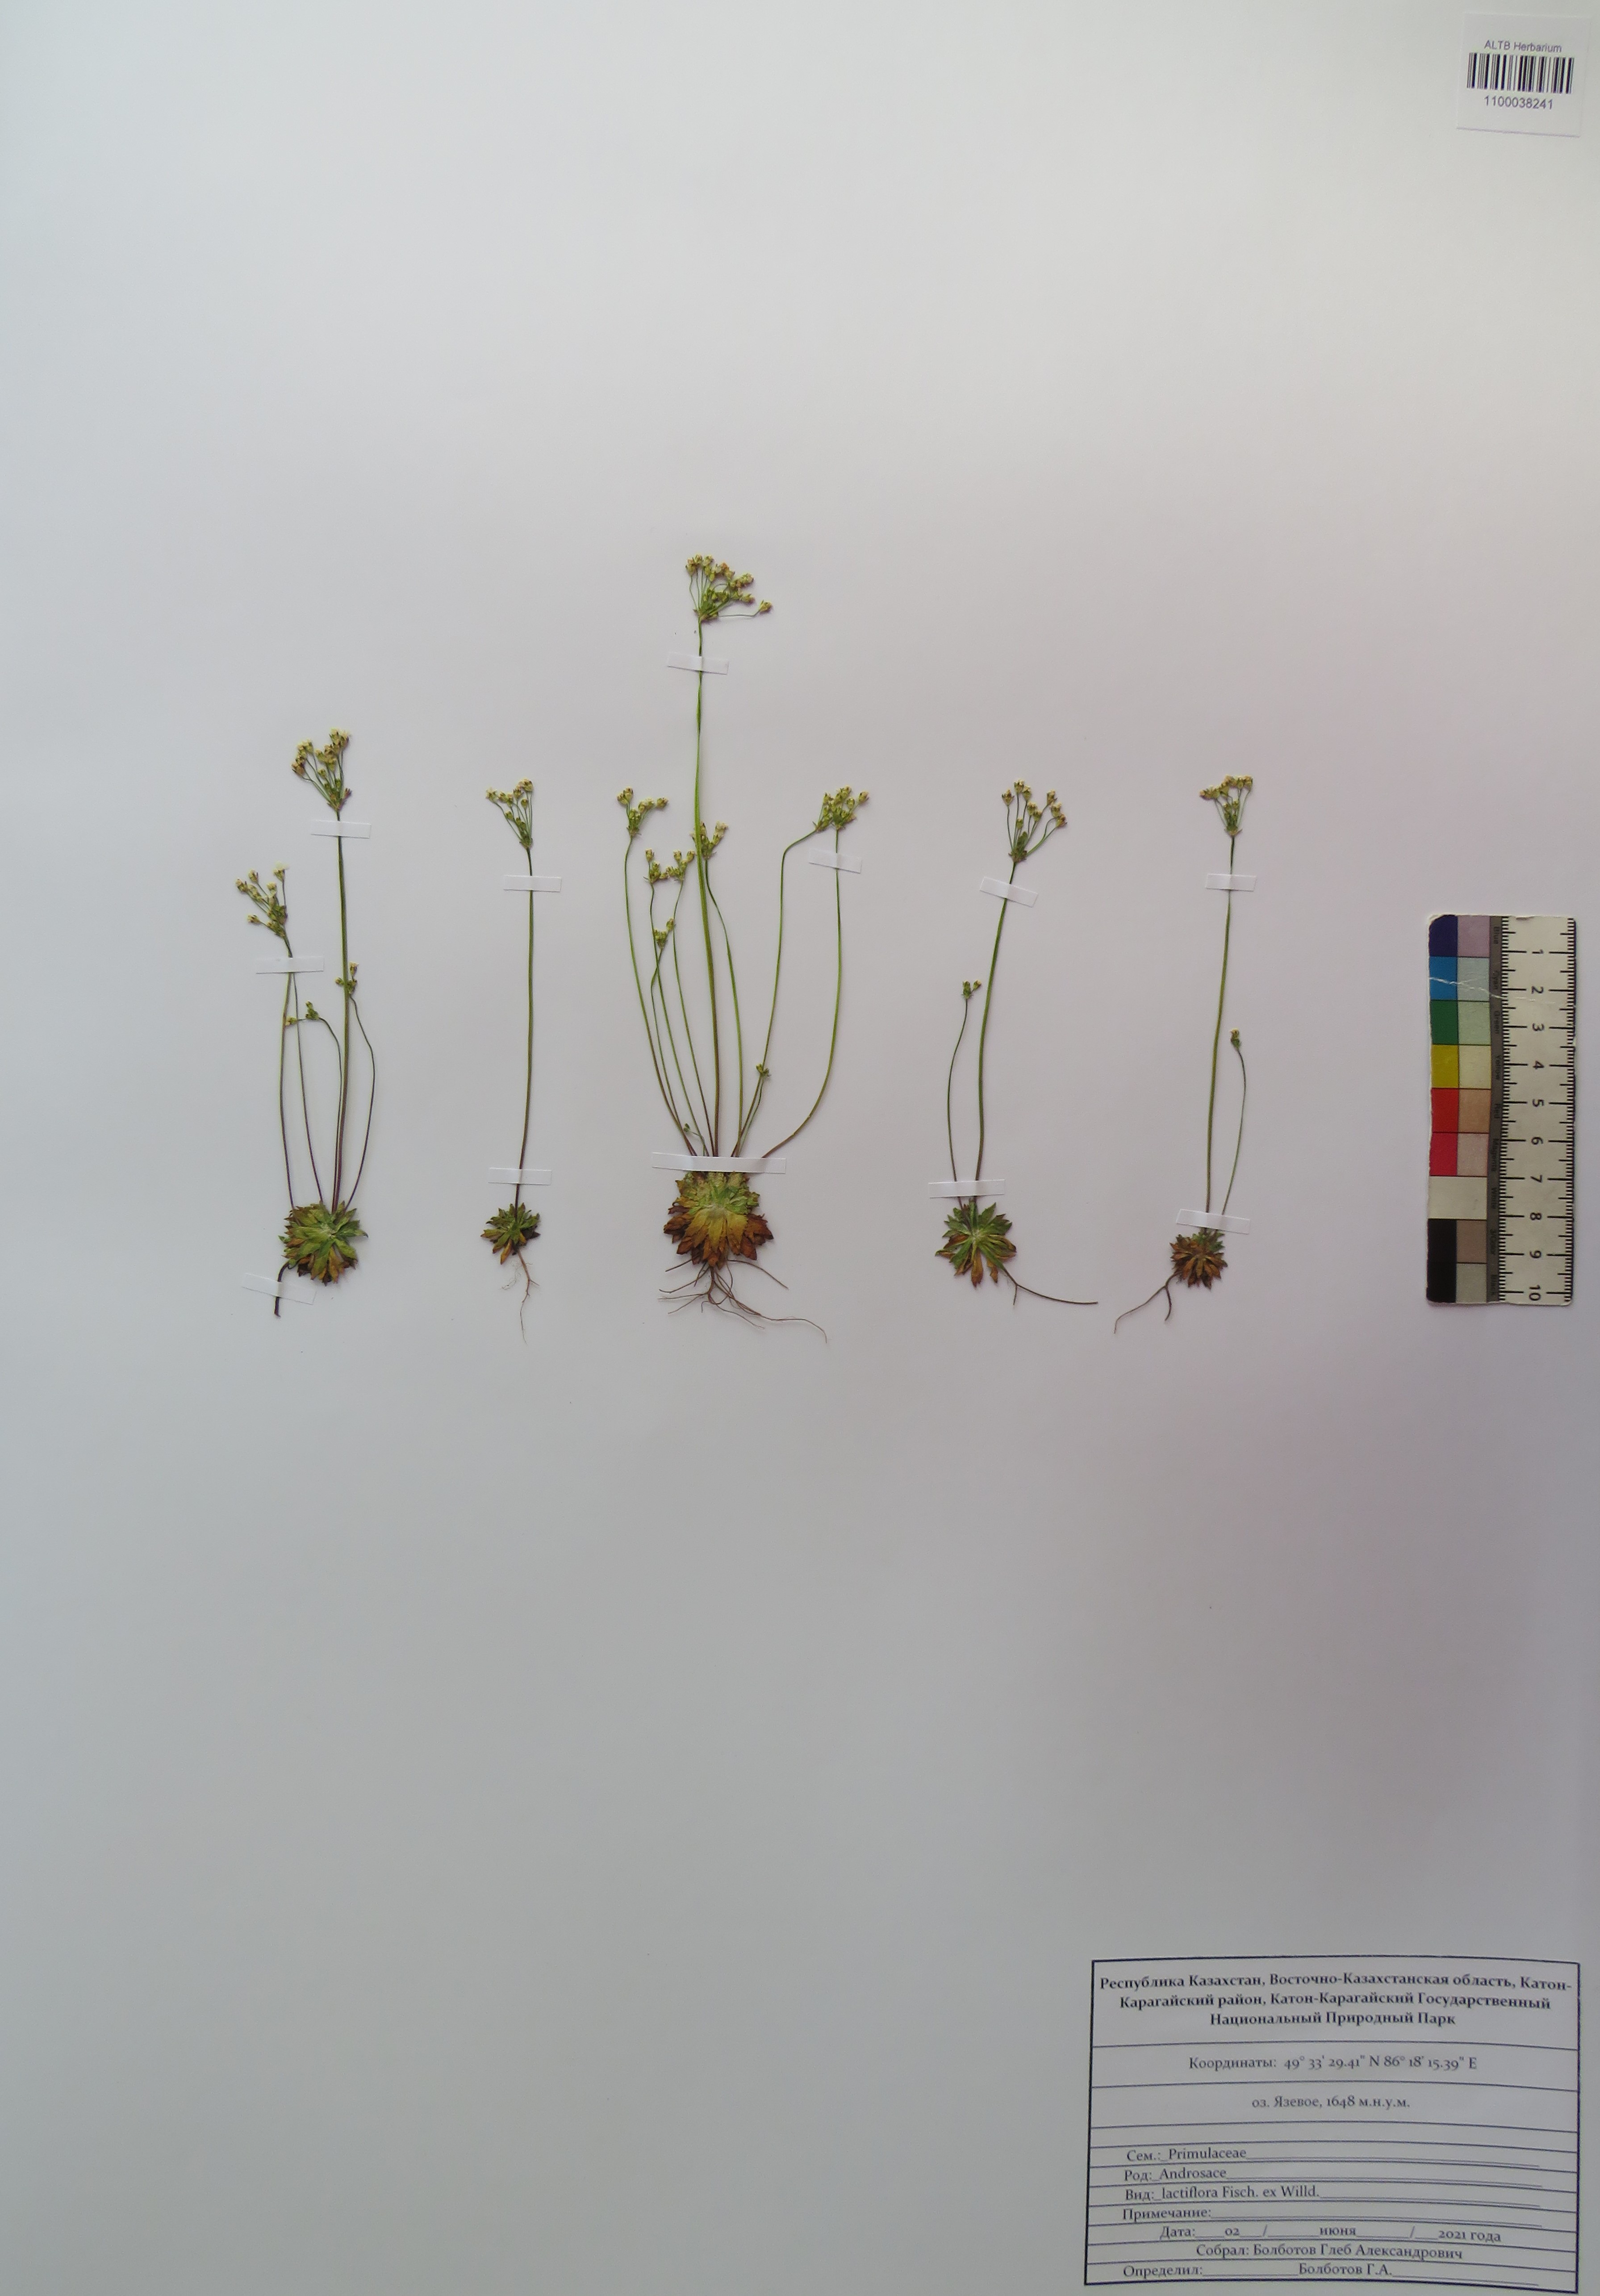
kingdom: Plantae
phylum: Tracheophyta
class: Magnoliopsida
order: Ericales
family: Primulaceae
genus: Androsace
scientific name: Androsace lactiflora
